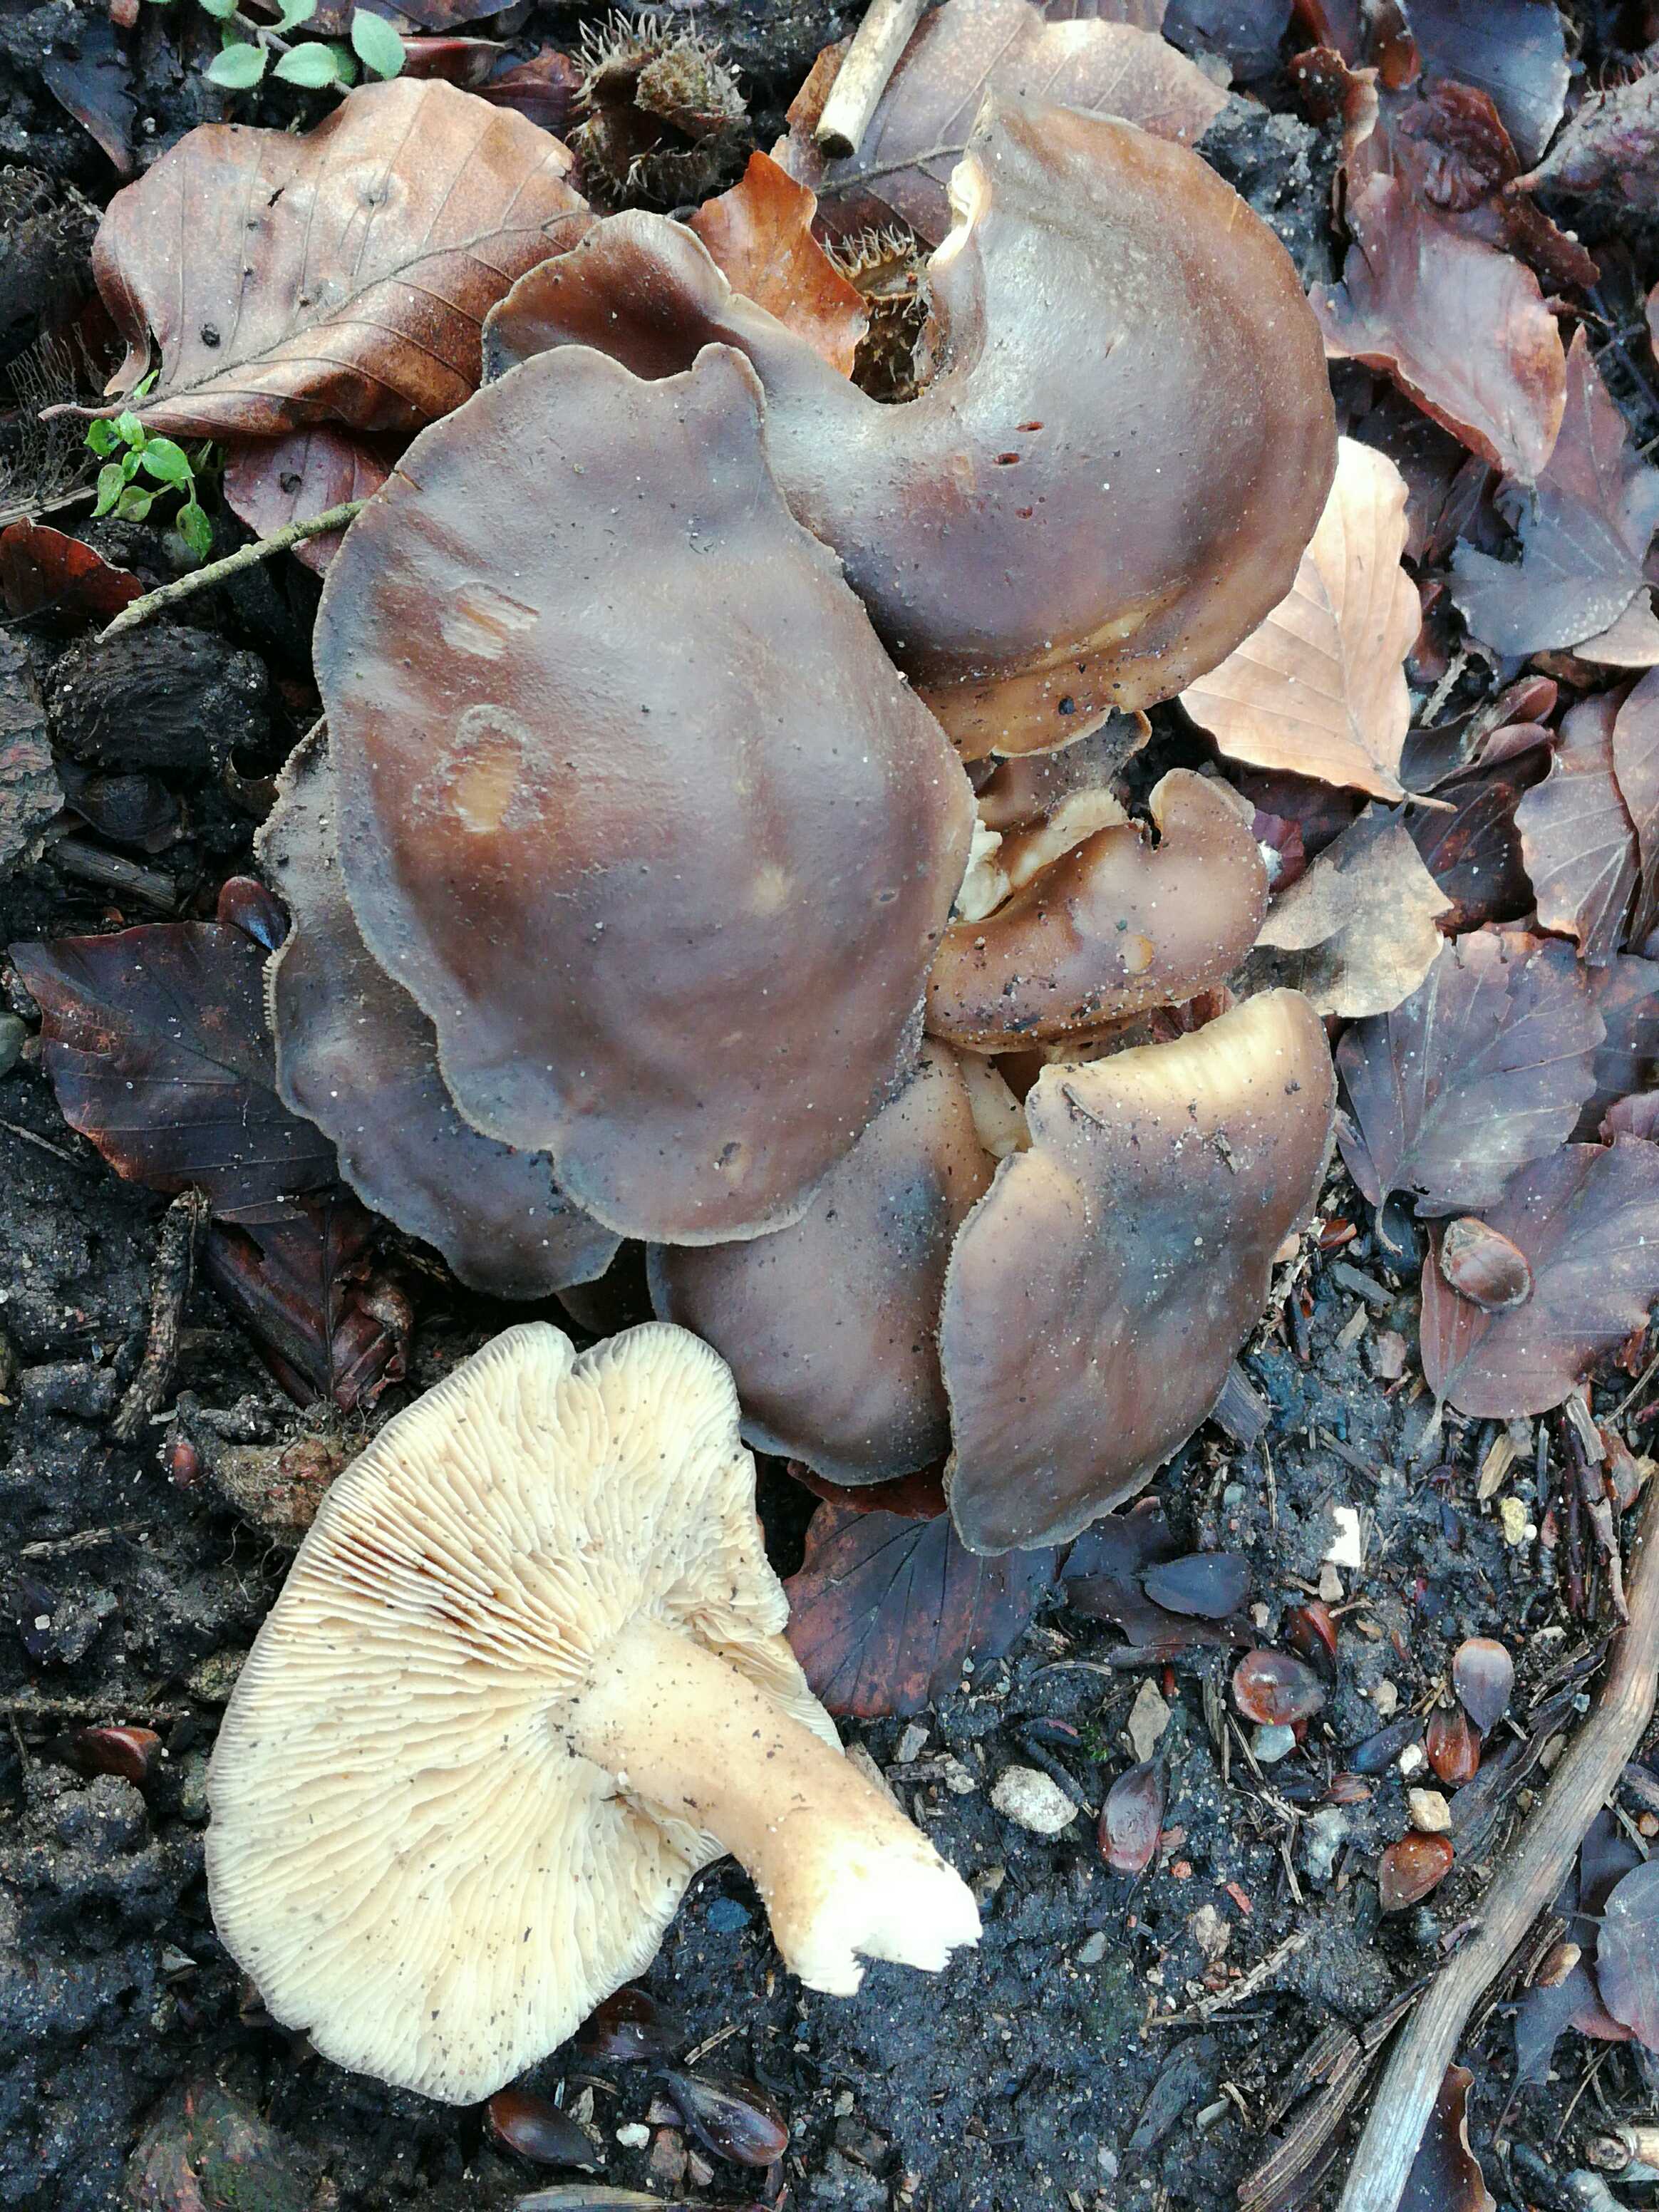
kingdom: Fungi
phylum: Basidiomycota
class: Agaricomycetes
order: Agaricales
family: Lyophyllaceae
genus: Lyophyllum
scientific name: Lyophyllum
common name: gråblad
